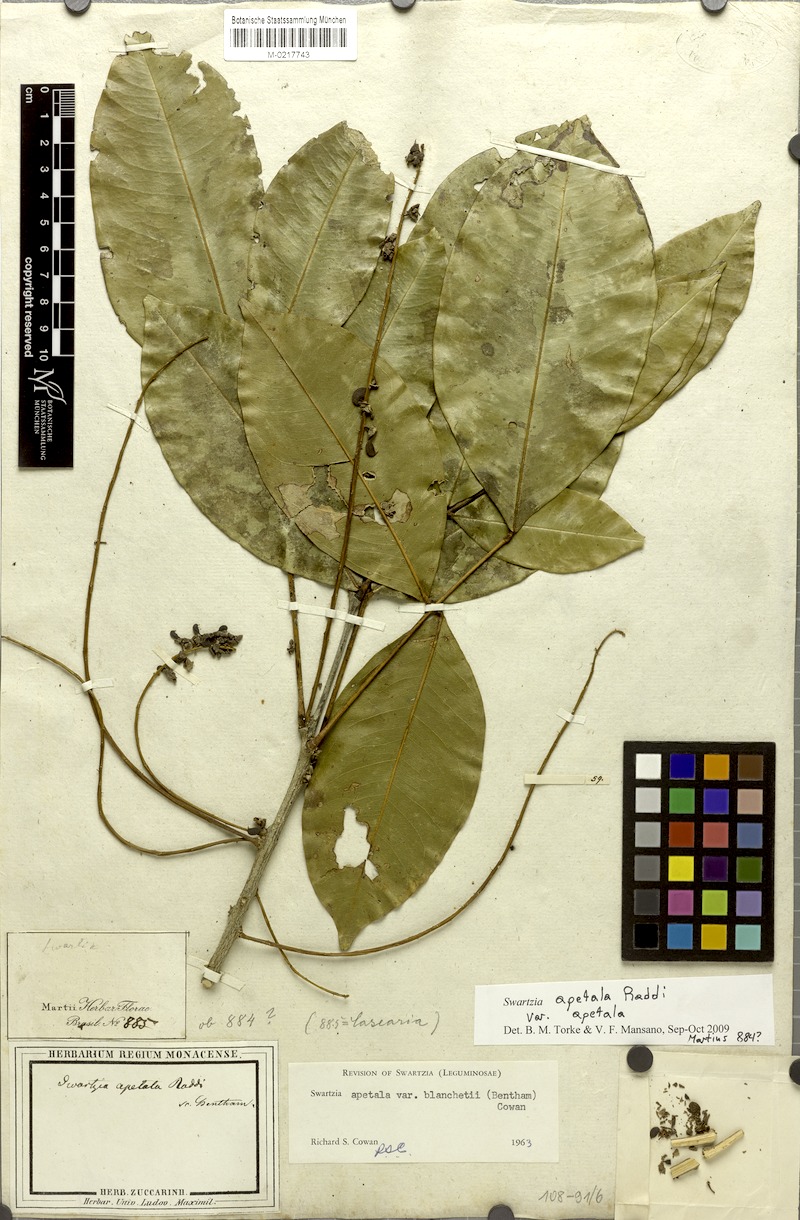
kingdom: Plantae
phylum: Tracheophyta
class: Magnoliopsida
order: Fabales
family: Fabaceae
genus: Swartzia
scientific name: Swartzia apetala
